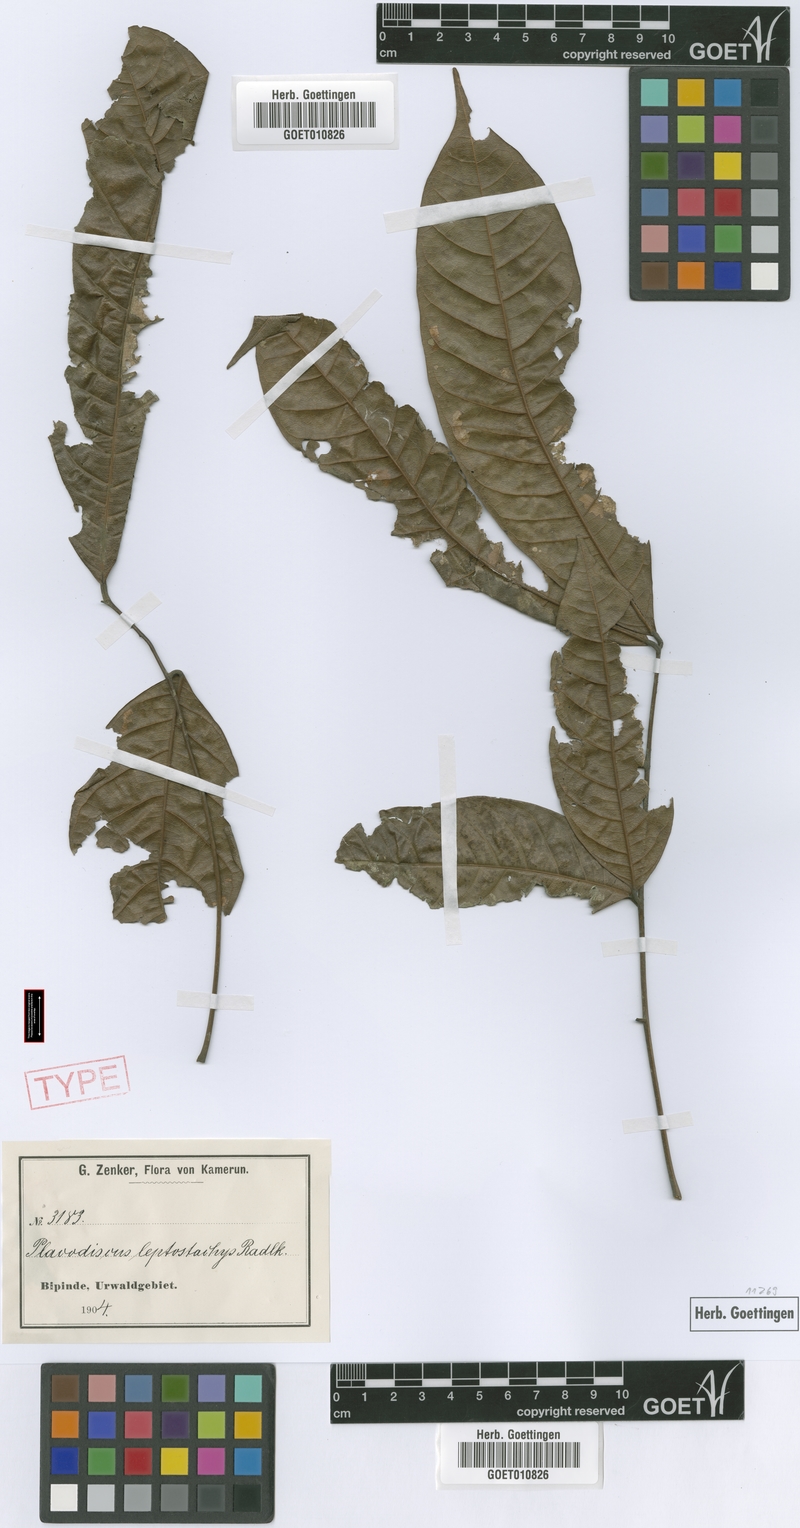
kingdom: Plantae
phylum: Tracheophyta
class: Magnoliopsida
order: Sapindales
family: Sapindaceae
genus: Placodiscus
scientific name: Placodiscus glandulosus
